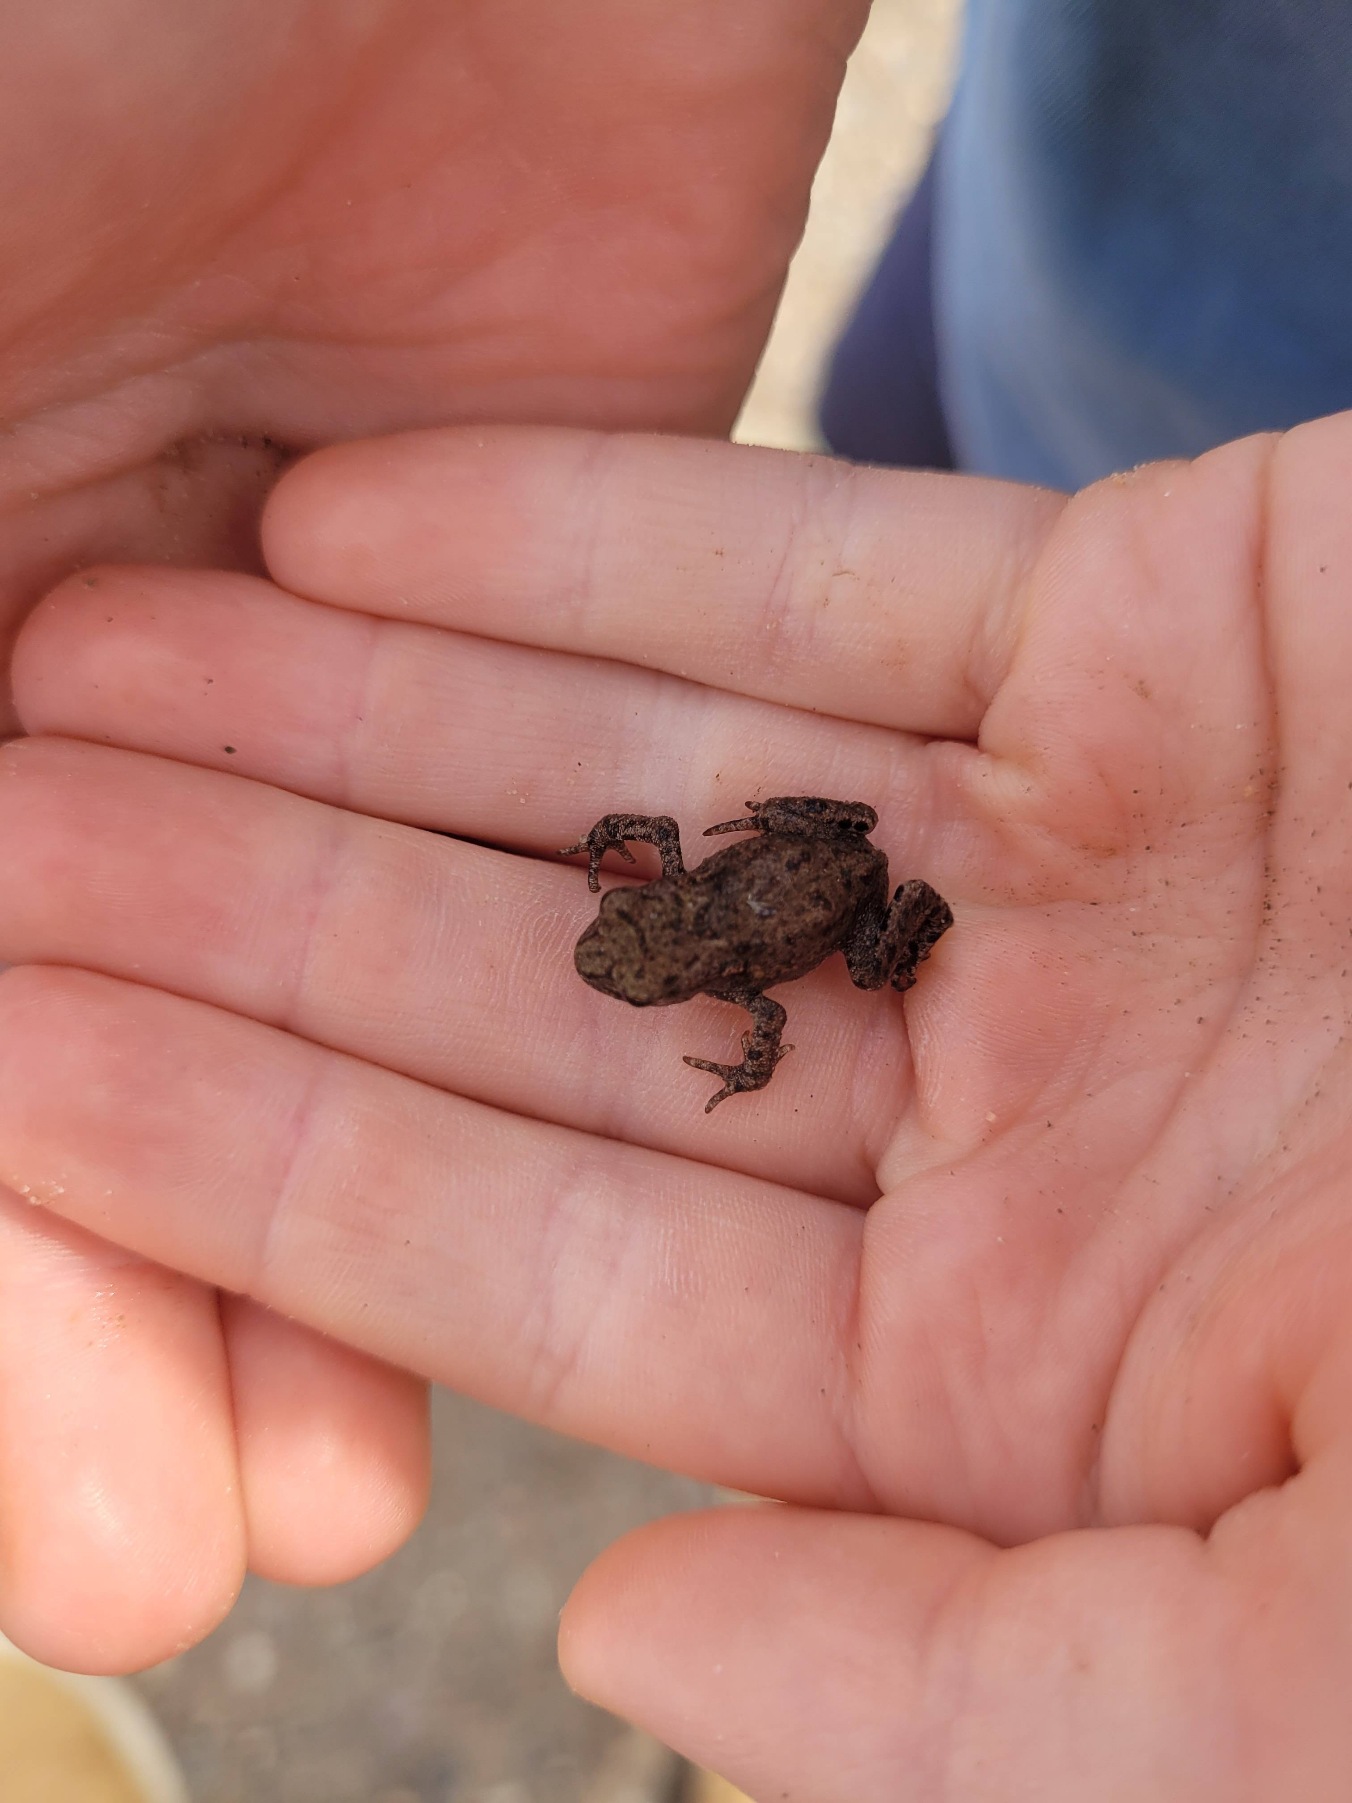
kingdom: Animalia
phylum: Chordata
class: Amphibia
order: Anura
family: Bufonidae
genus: Bufo
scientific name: Bufo bufo
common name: Skrubtudse
